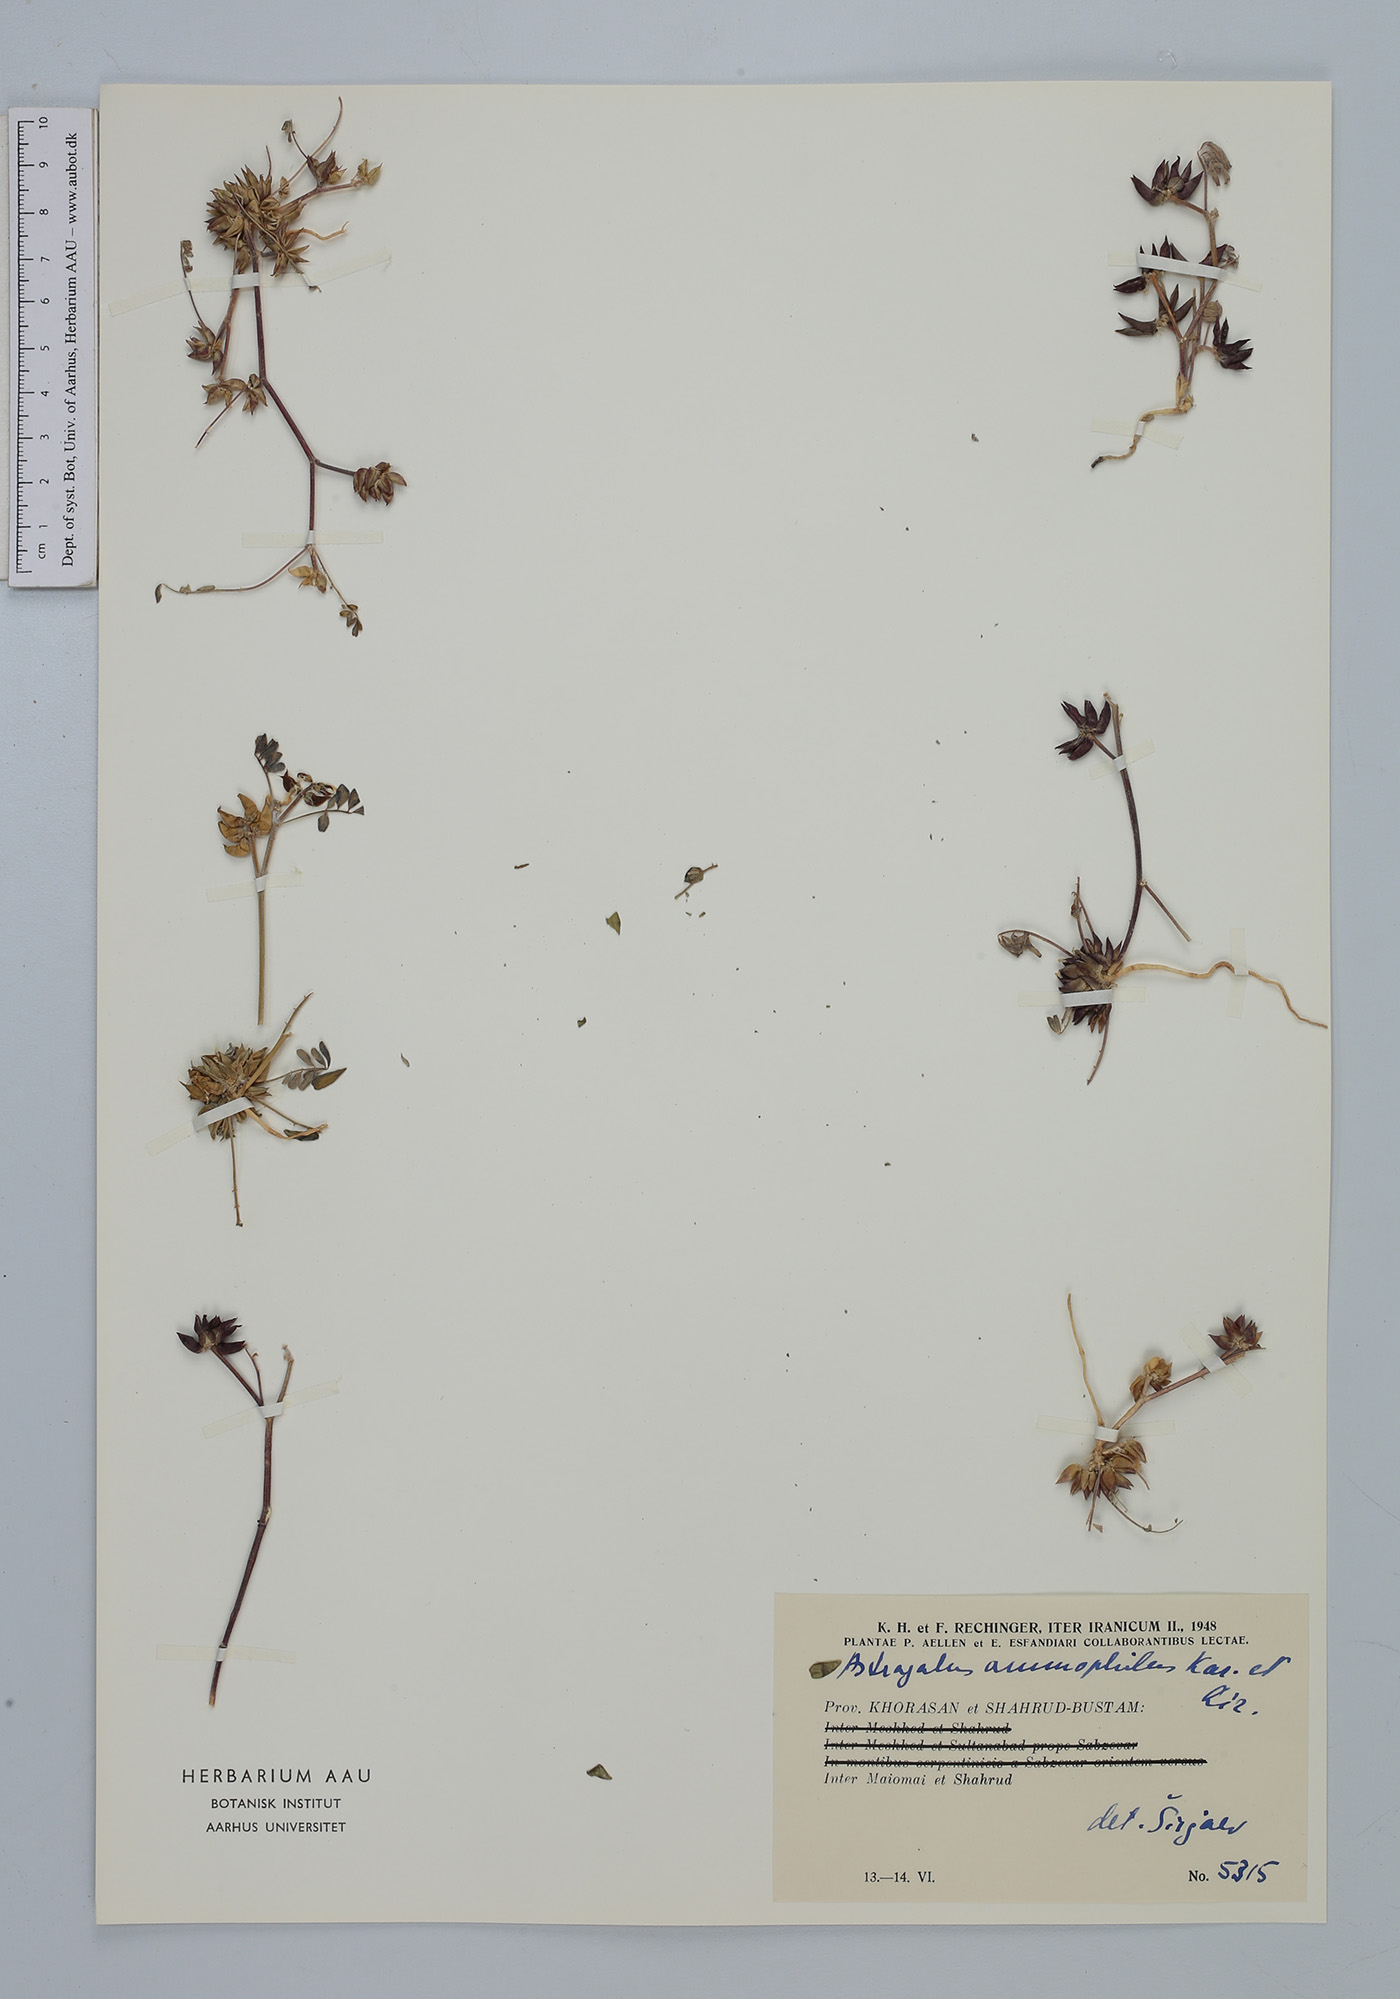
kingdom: Plantae
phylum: Tracheophyta
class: Magnoliopsida
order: Fabales
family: Fabaceae
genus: Astragalus
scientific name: Astragalus ammophilus
